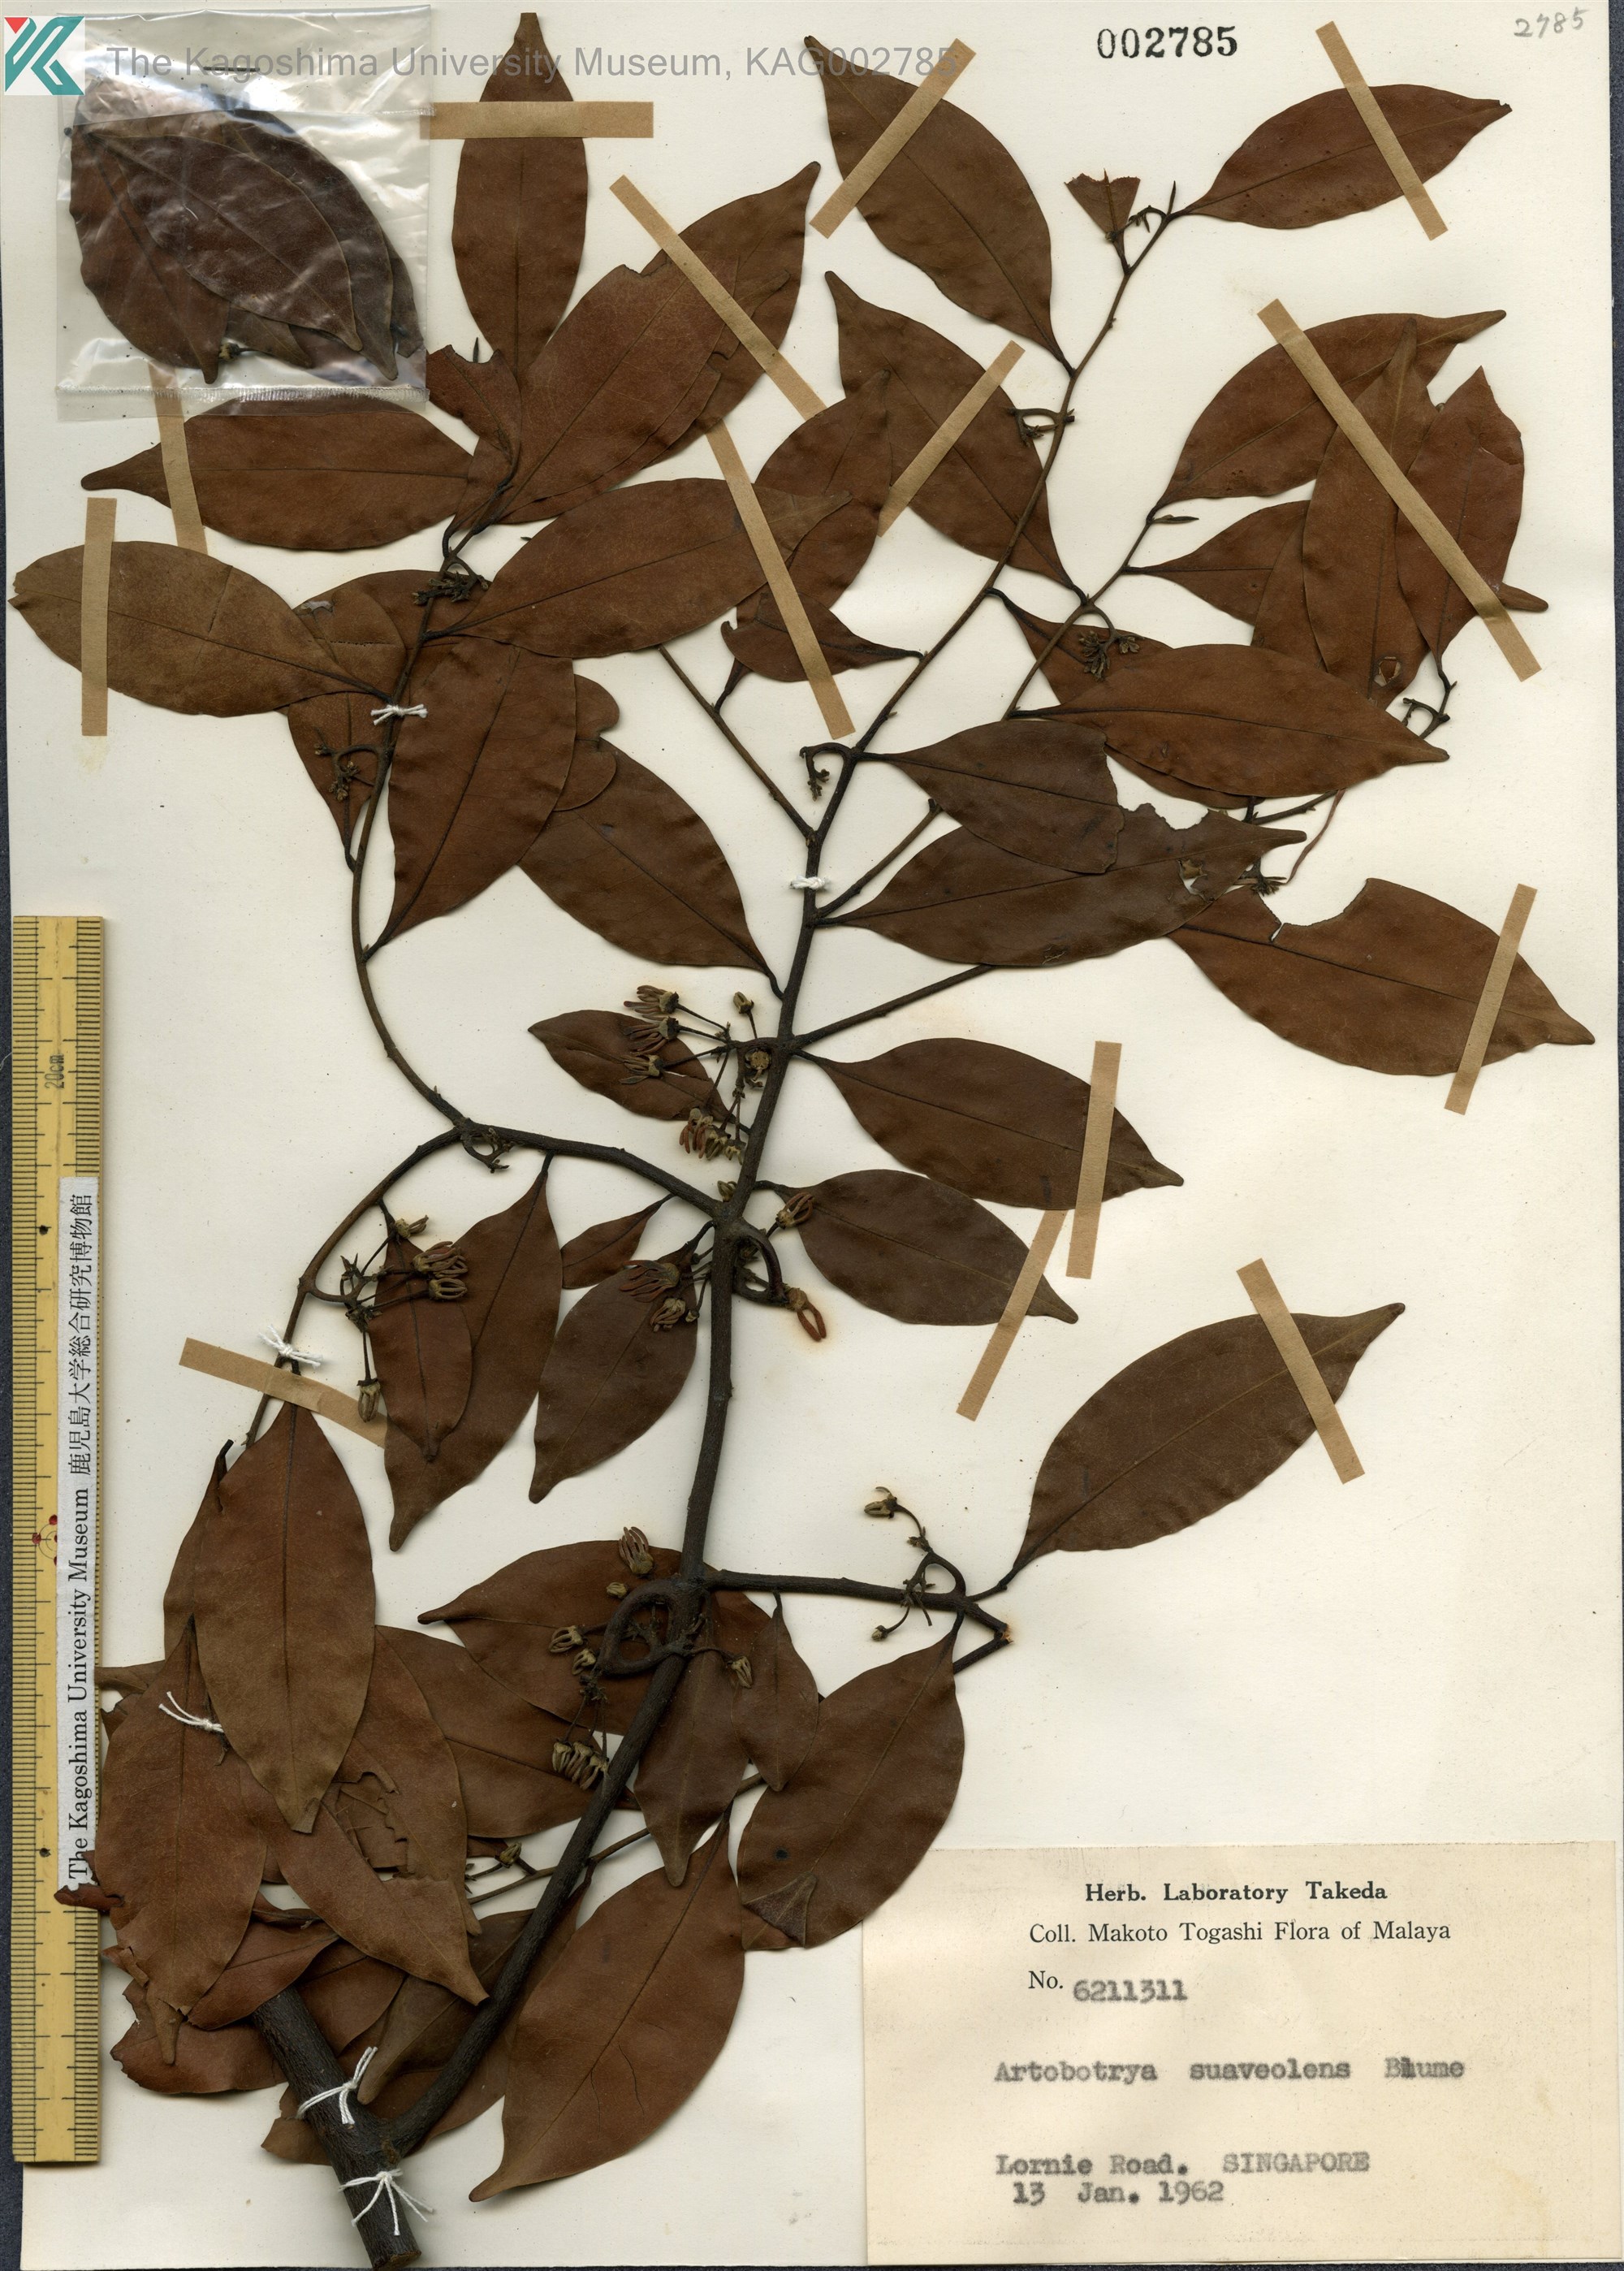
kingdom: Plantae
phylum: Tracheophyta
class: Magnoliopsida
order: Magnoliales
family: Annonaceae
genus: Artabotrys
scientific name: Artabotrys suaveolens
